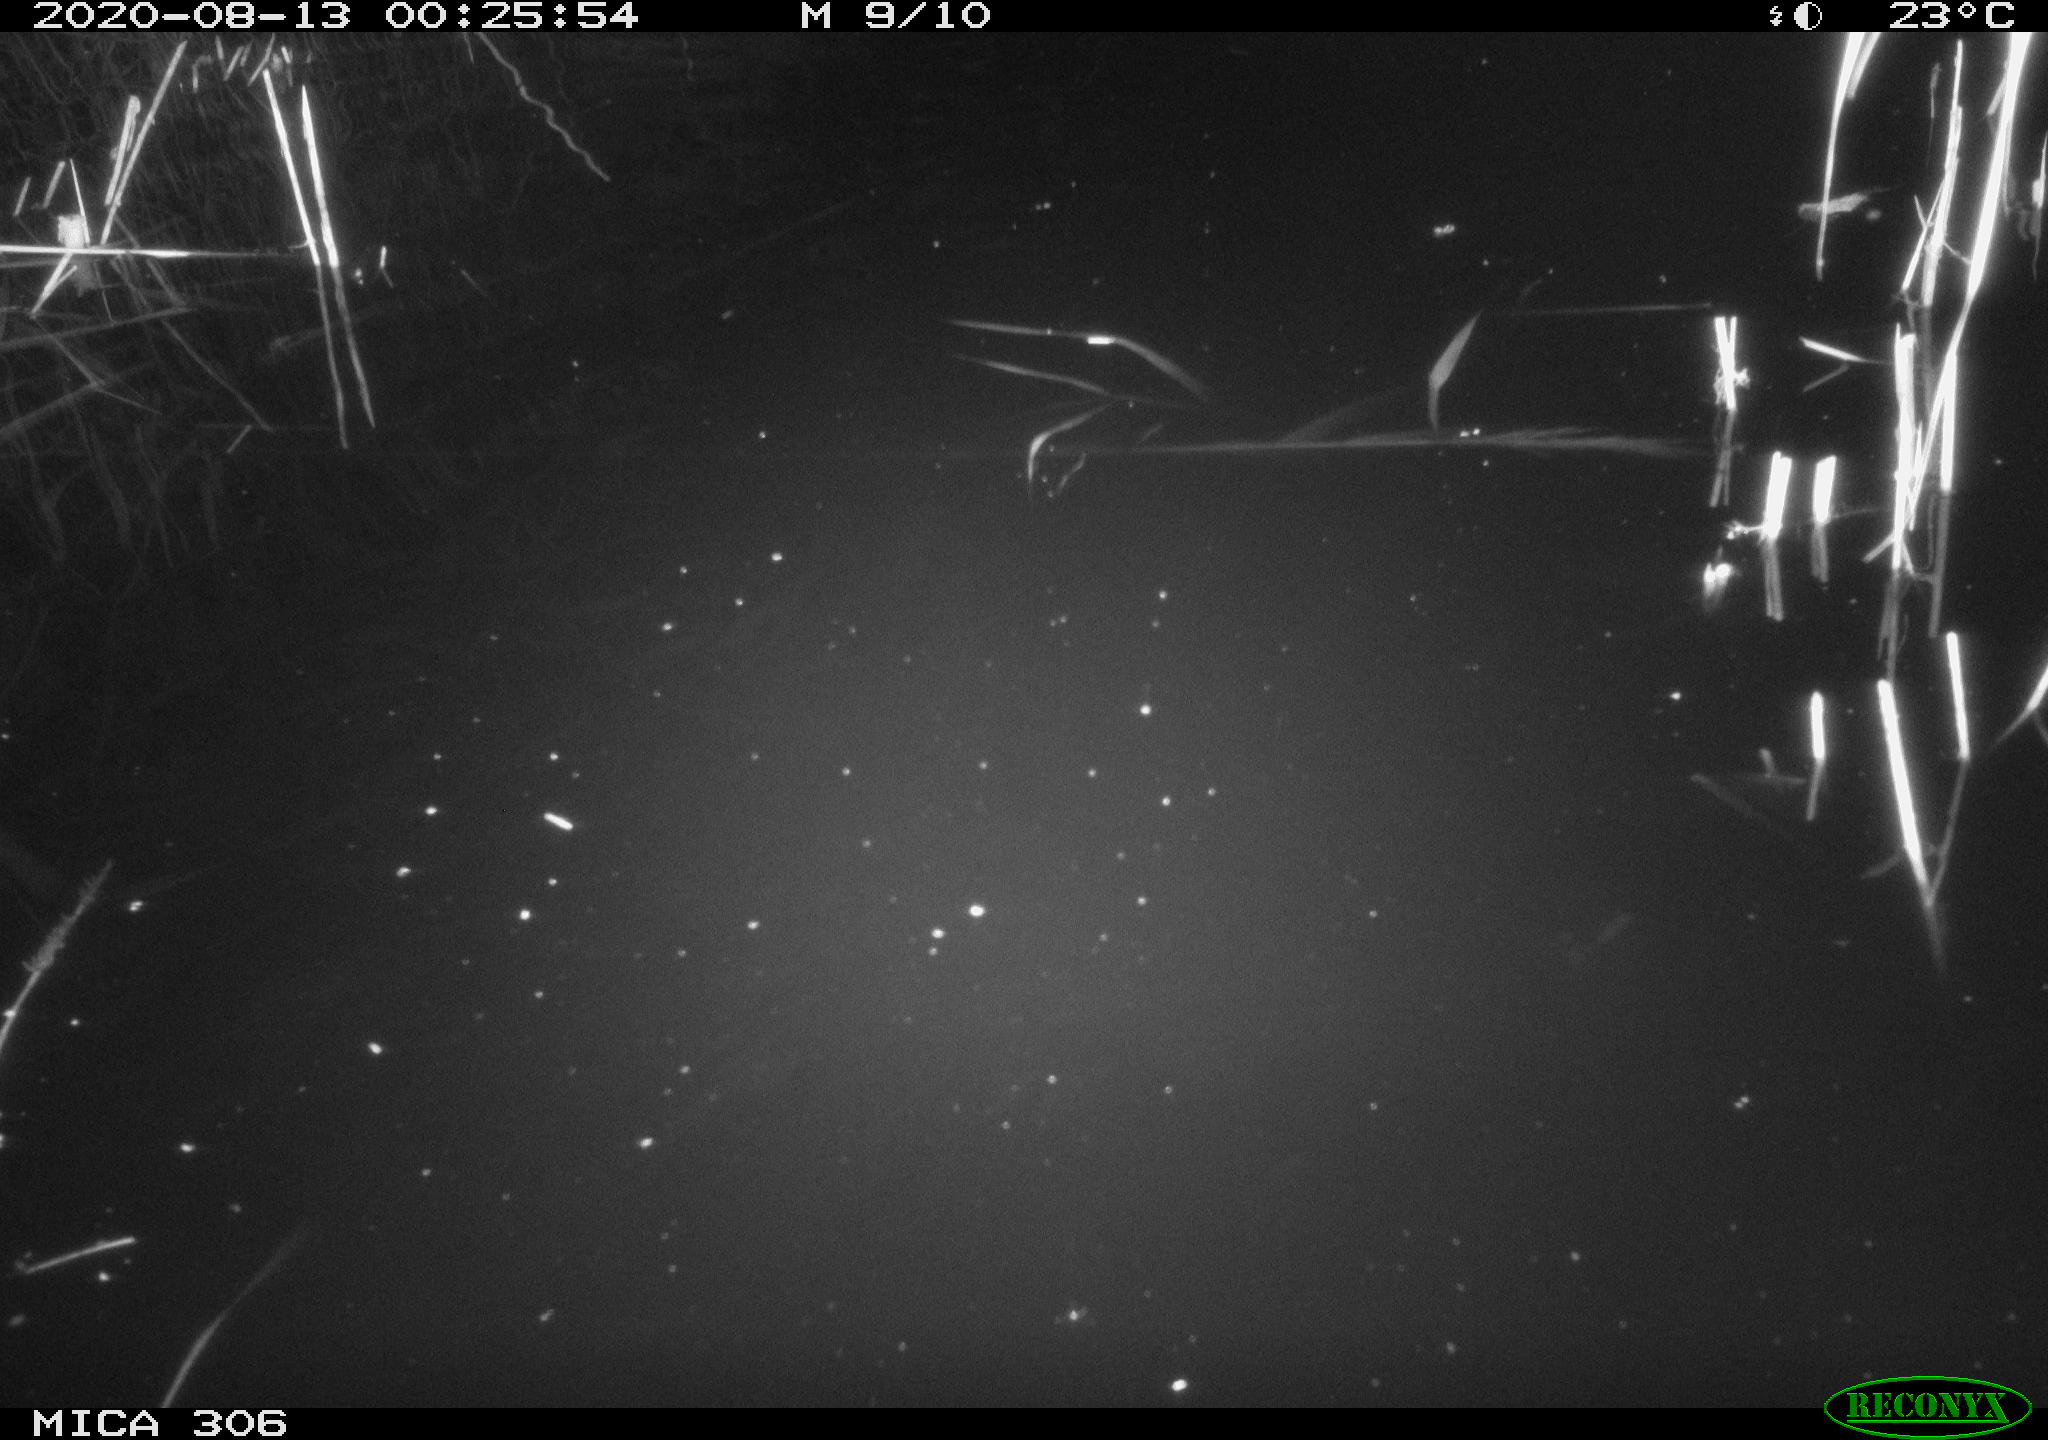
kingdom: Animalia
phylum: Chordata
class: Mammalia
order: Rodentia
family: Cricetidae
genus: Ondatra
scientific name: Ondatra zibethicus
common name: Muskrat
